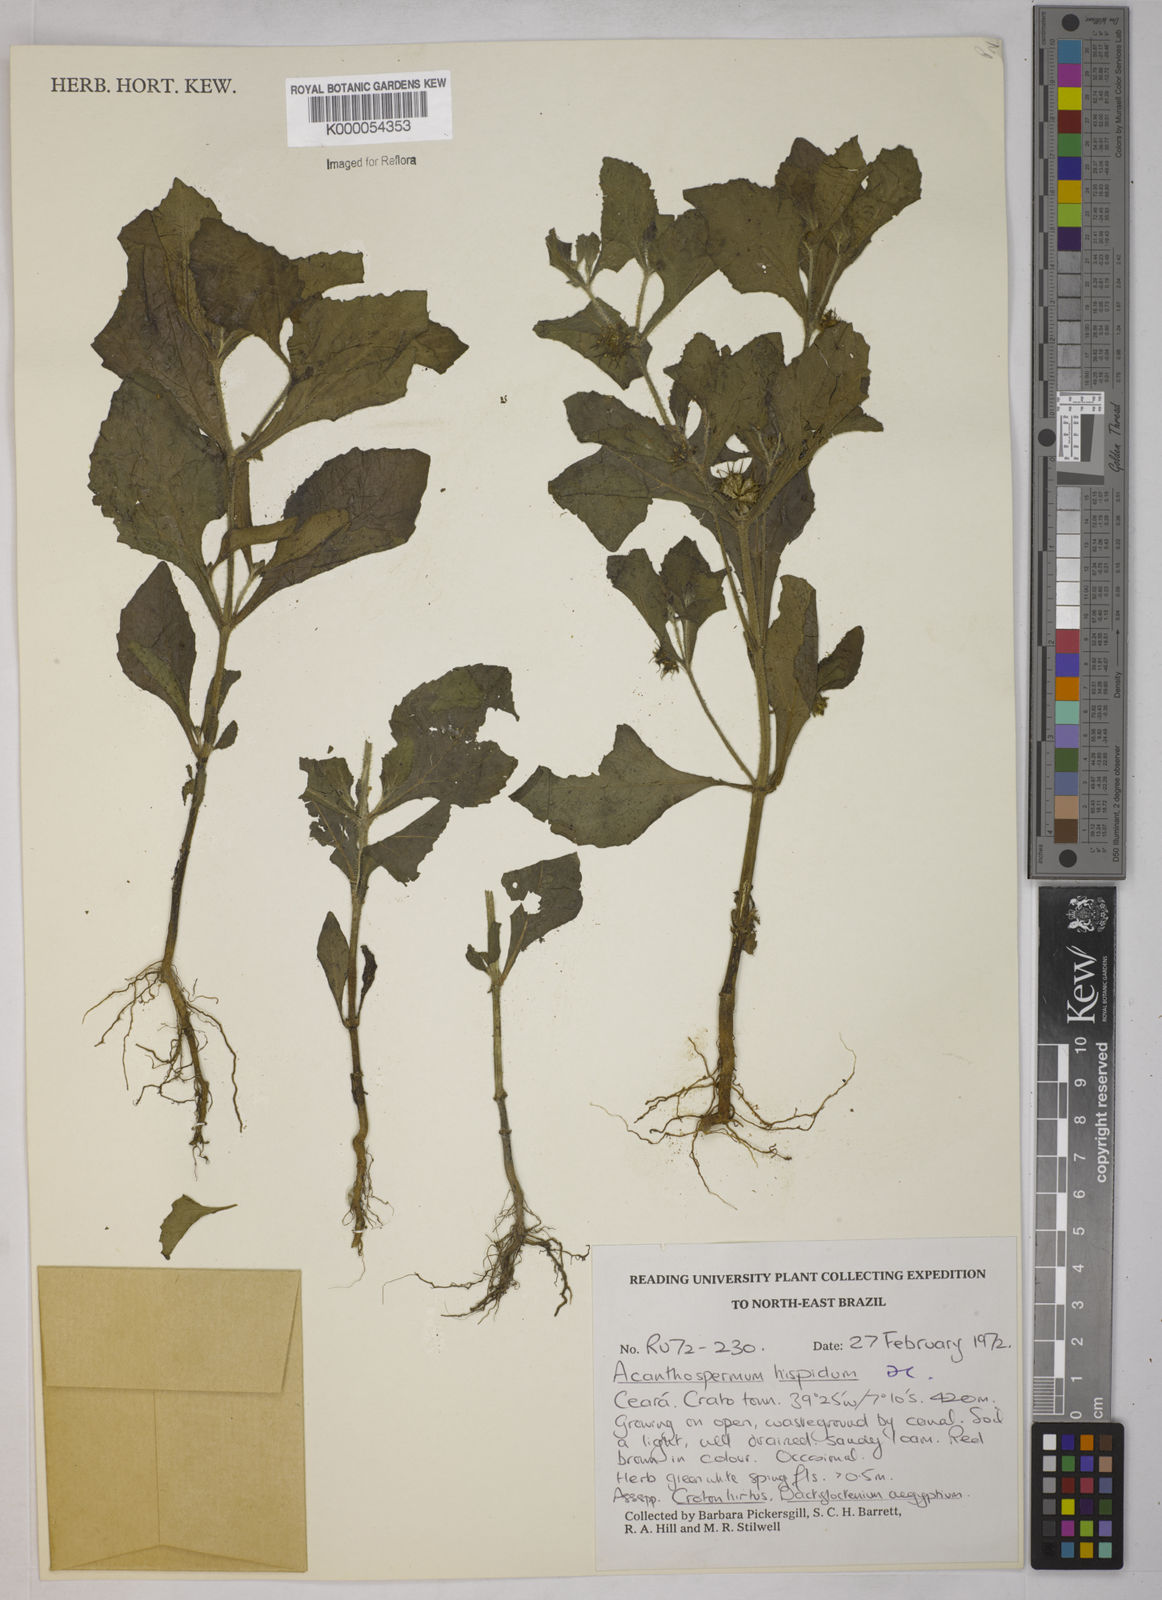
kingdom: Plantae
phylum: Tracheophyta
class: Magnoliopsida
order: Asterales
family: Asteraceae
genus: Acanthospermum
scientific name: Acanthospermum hispidum
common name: Hispid starbur
